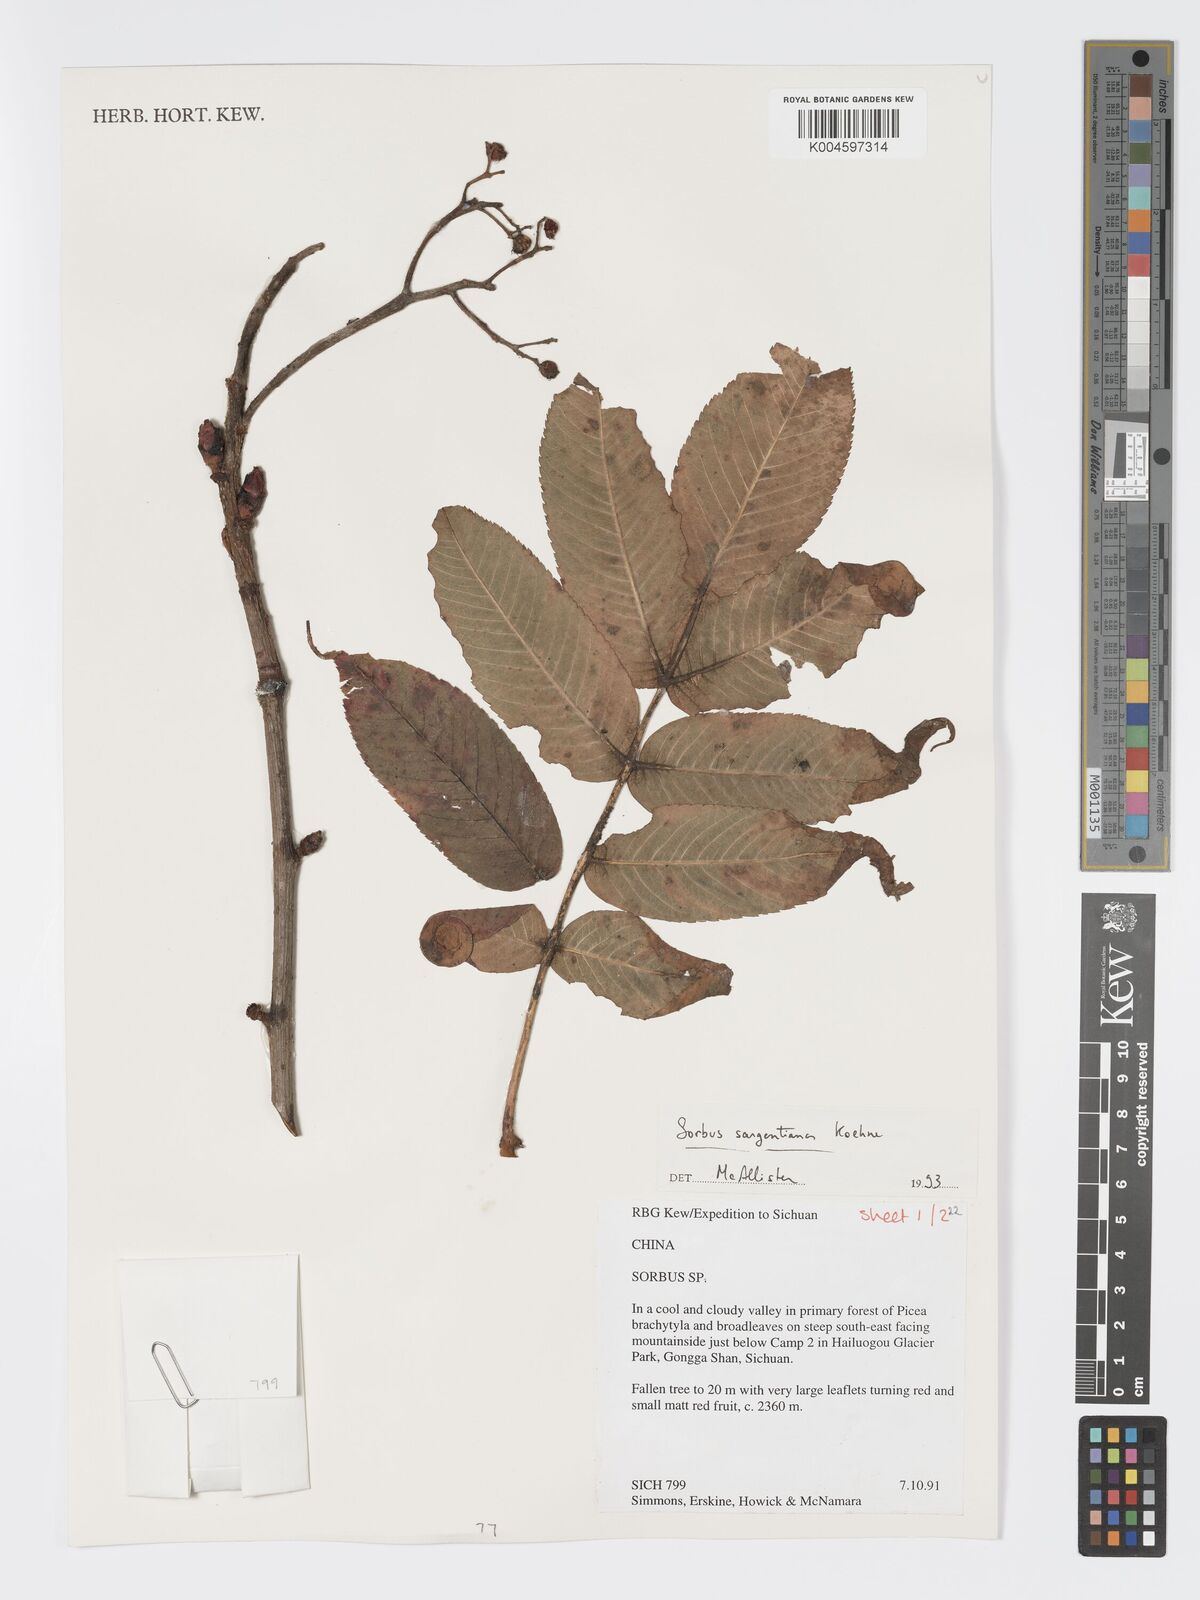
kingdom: Plantae
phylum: Tracheophyta
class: Magnoliopsida
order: Rosales
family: Rosaceae
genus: Sorbus
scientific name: Sorbus sargentiana
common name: Sargent's rowan
